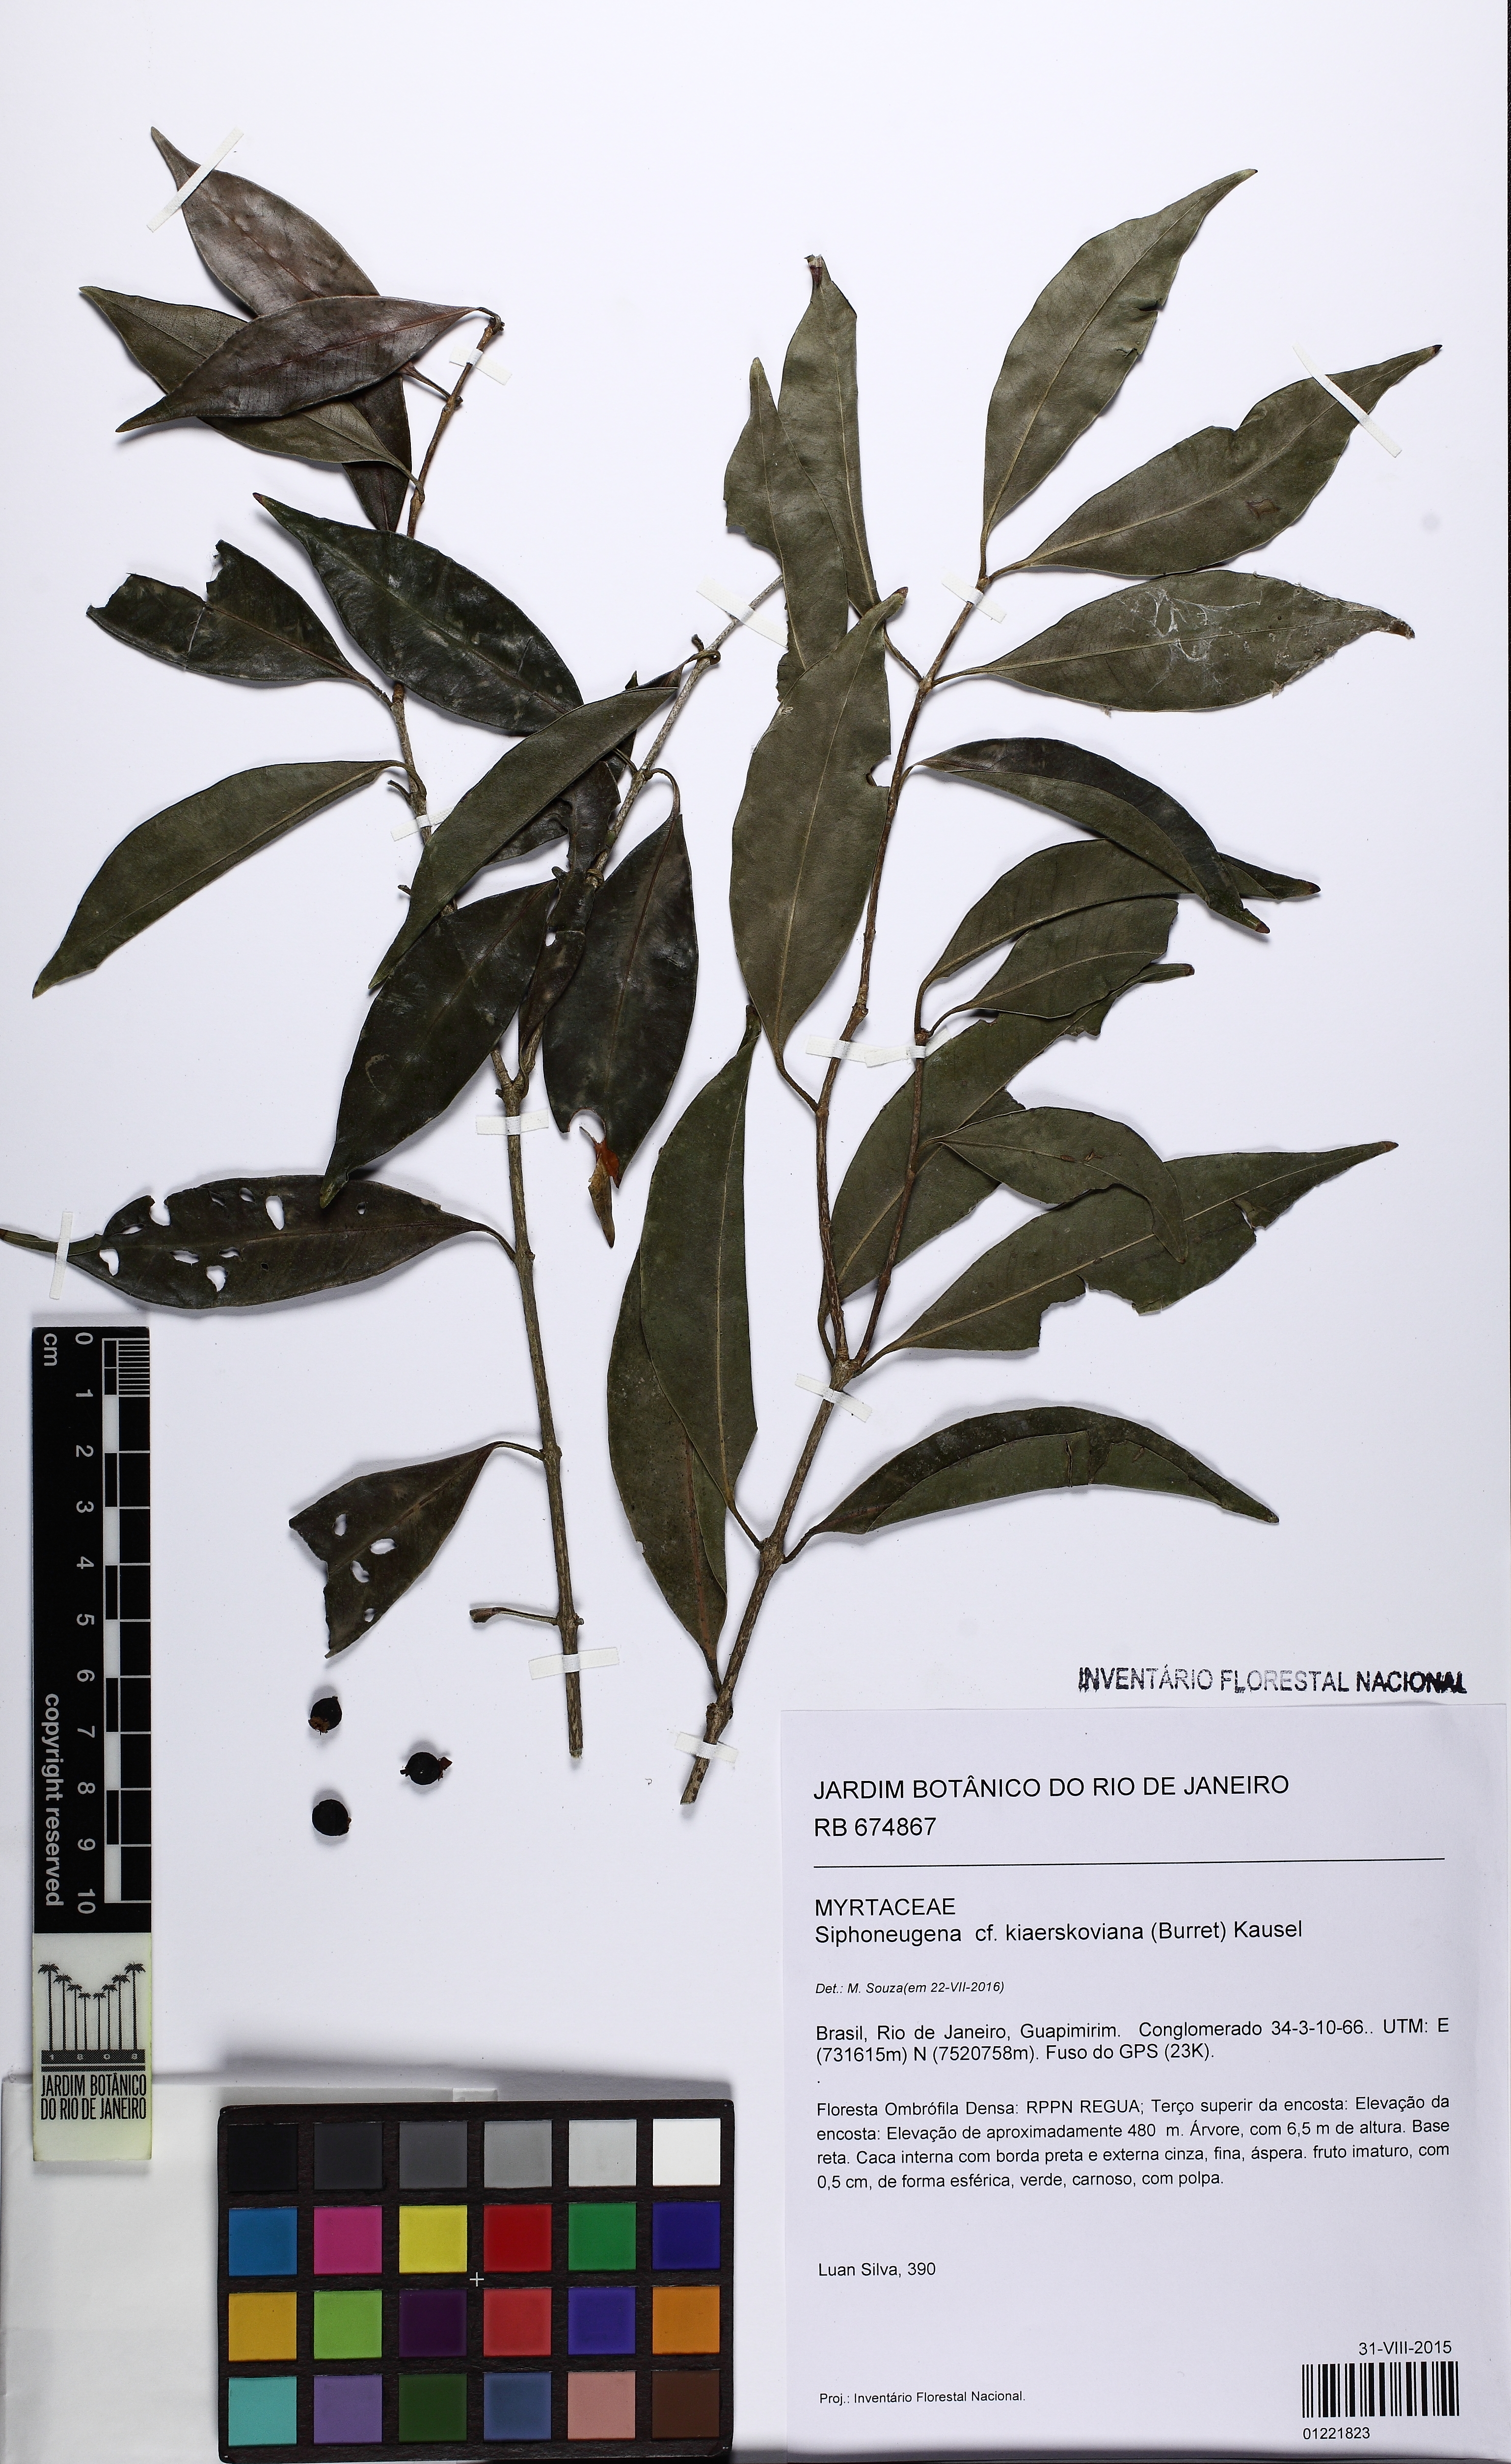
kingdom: Plantae
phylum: Tracheophyta
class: Magnoliopsida
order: Myrtales
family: Myrtaceae
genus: Siphoneugena
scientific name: Siphoneugena kiaerskoviana
